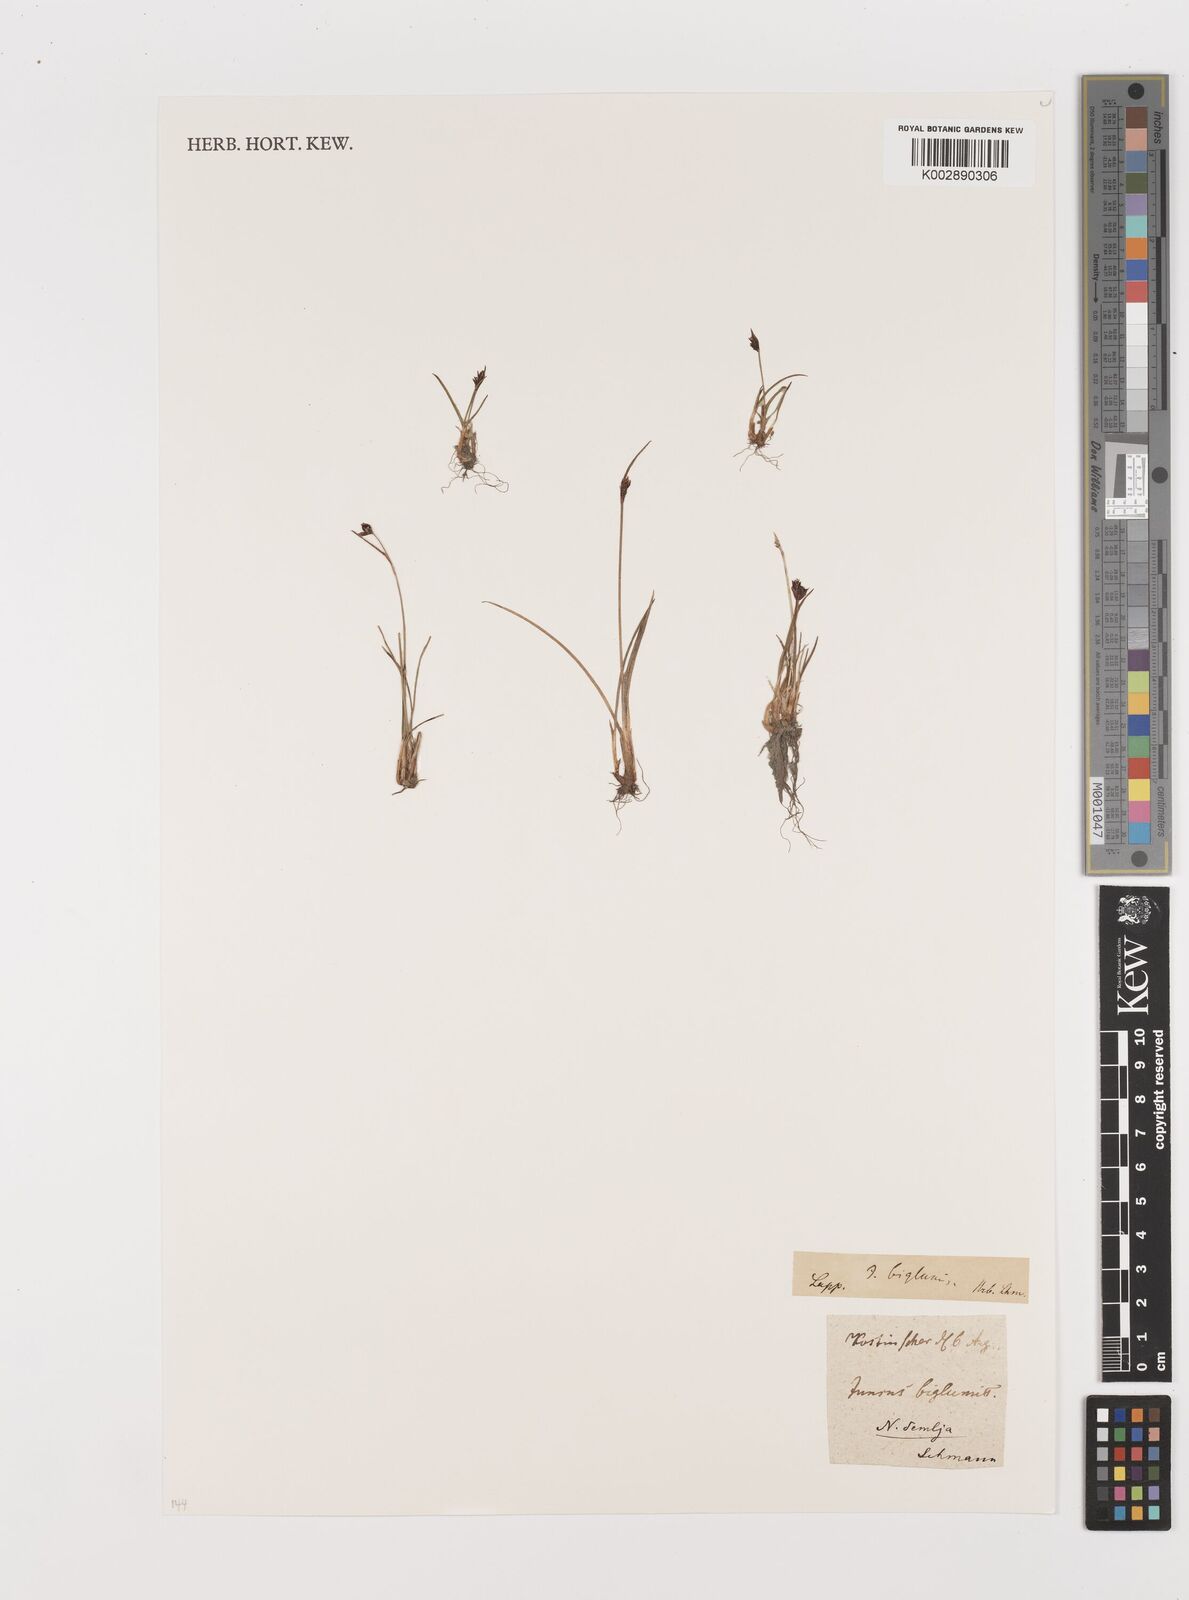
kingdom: Plantae
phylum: Tracheophyta
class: Liliopsida
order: Poales
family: Juncaceae
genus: Juncus
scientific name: Juncus biglumis
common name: Two-flowered rush
